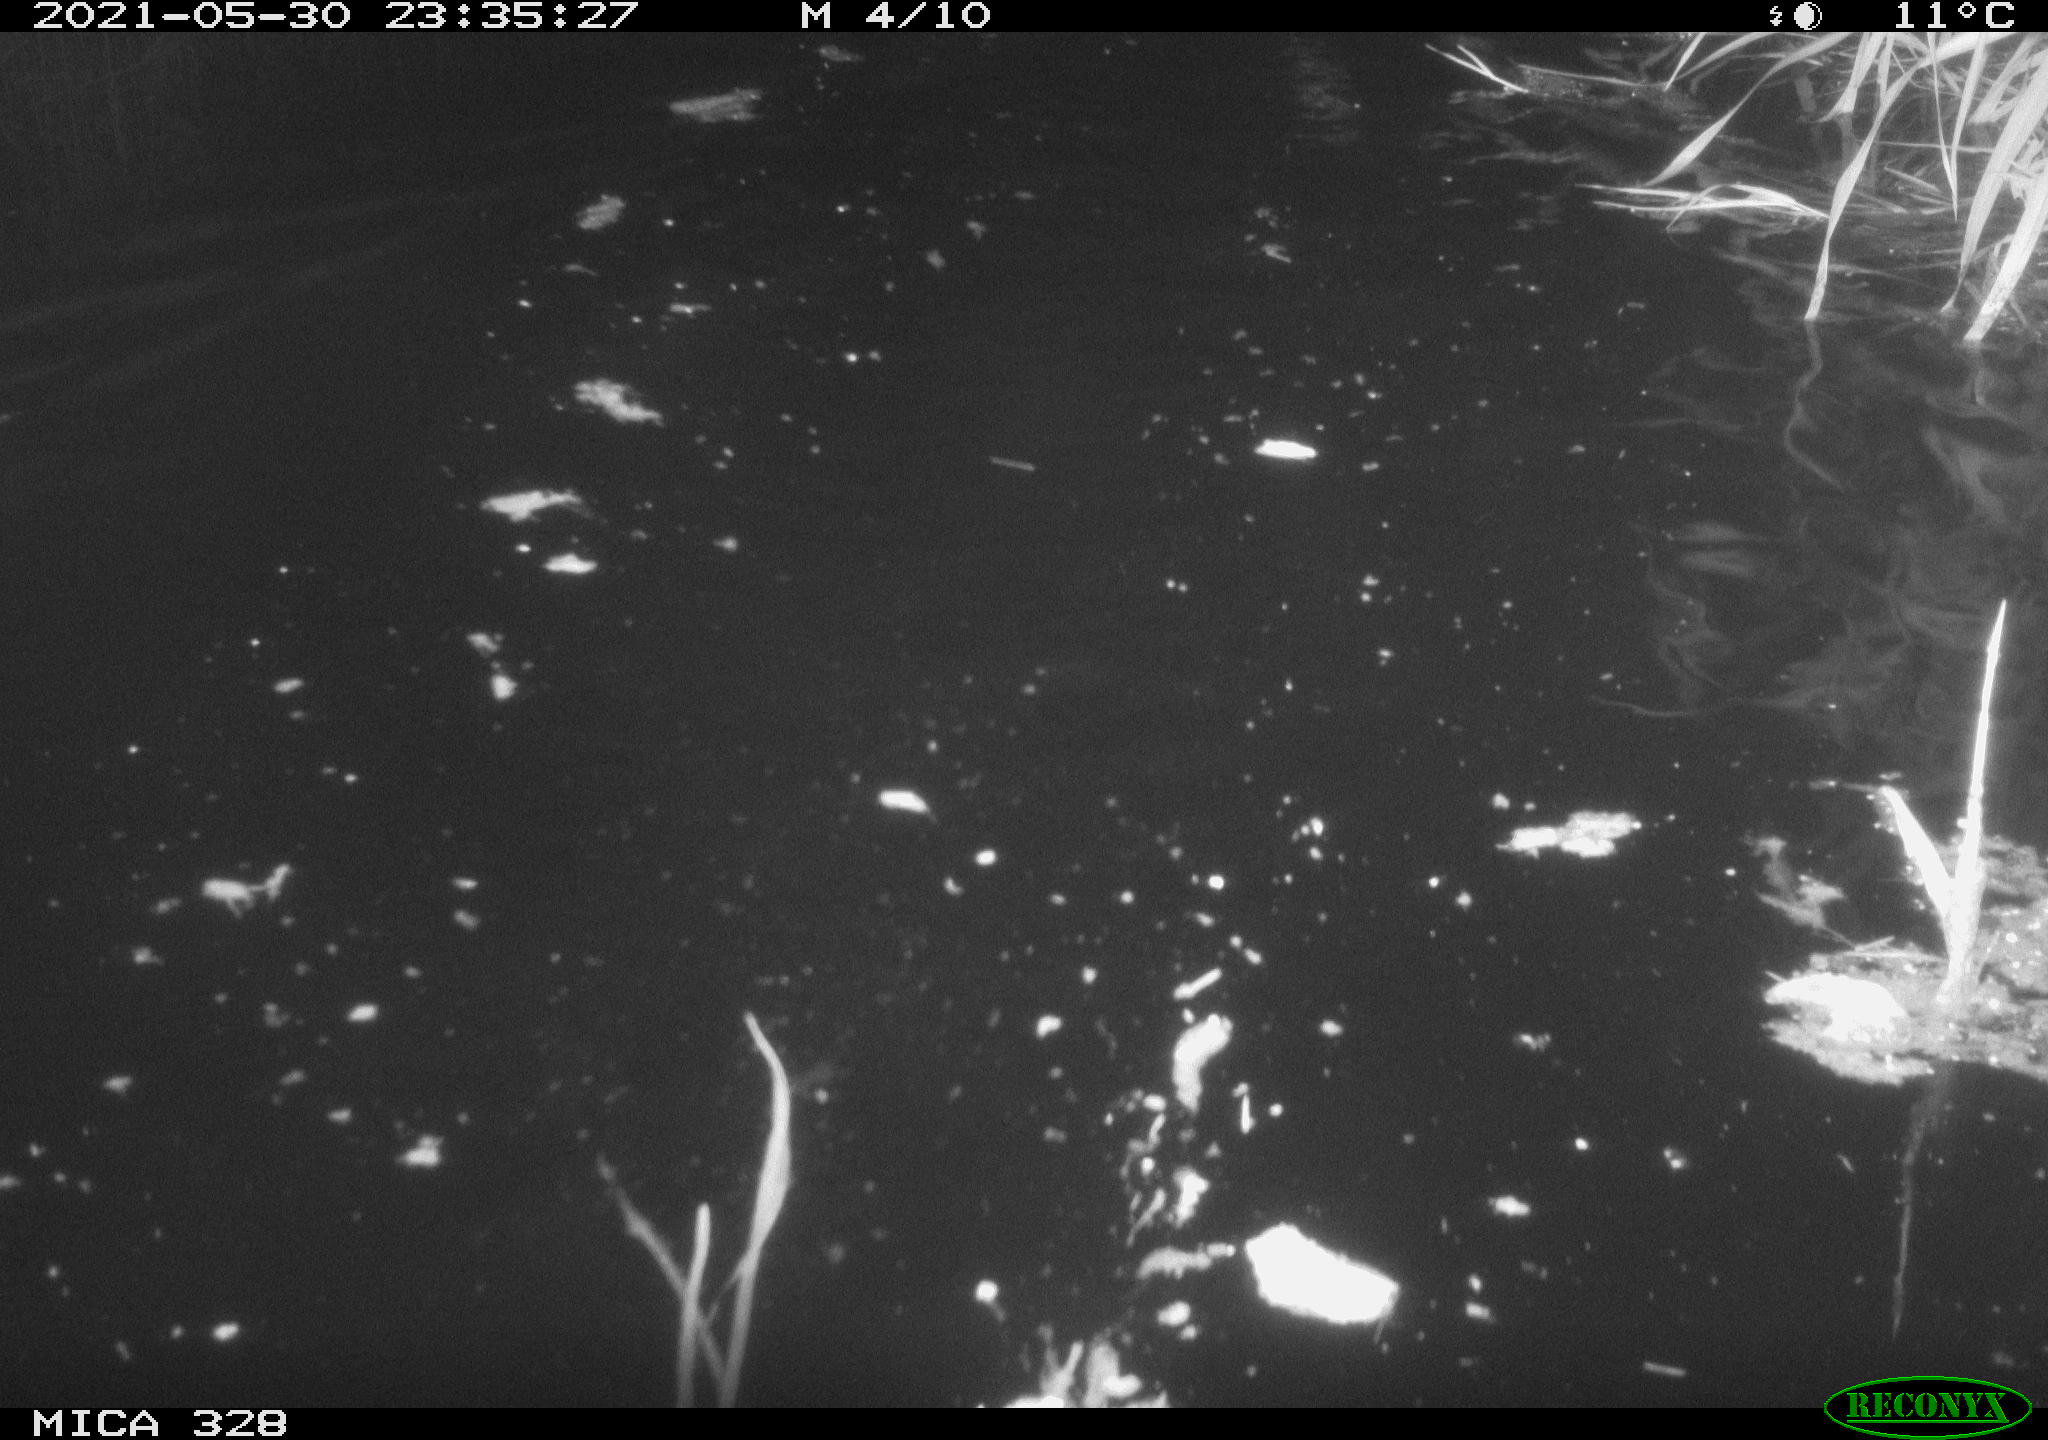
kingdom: Animalia
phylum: Chordata
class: Mammalia
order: Rodentia
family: Cricetidae
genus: Ondatra
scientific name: Ondatra zibethicus
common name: Muskrat
